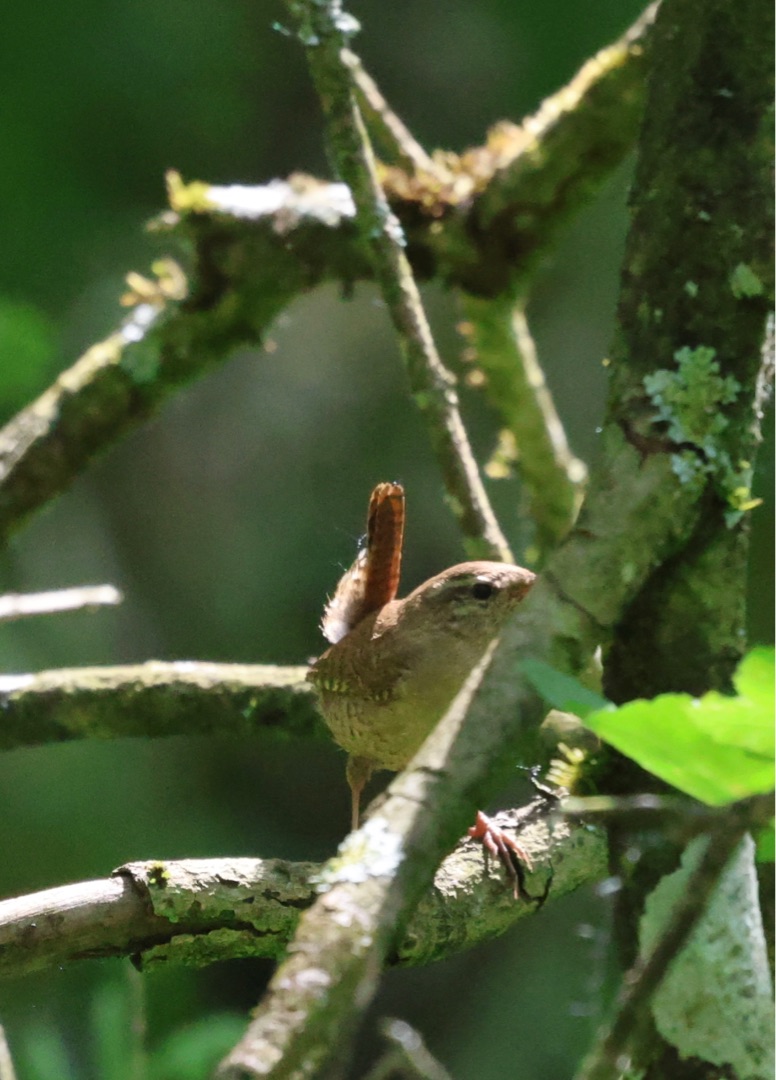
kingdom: Animalia
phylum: Chordata
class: Aves
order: Passeriformes
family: Troglodytidae
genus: Troglodytes
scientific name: Troglodytes troglodytes
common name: Gærdesmutte
